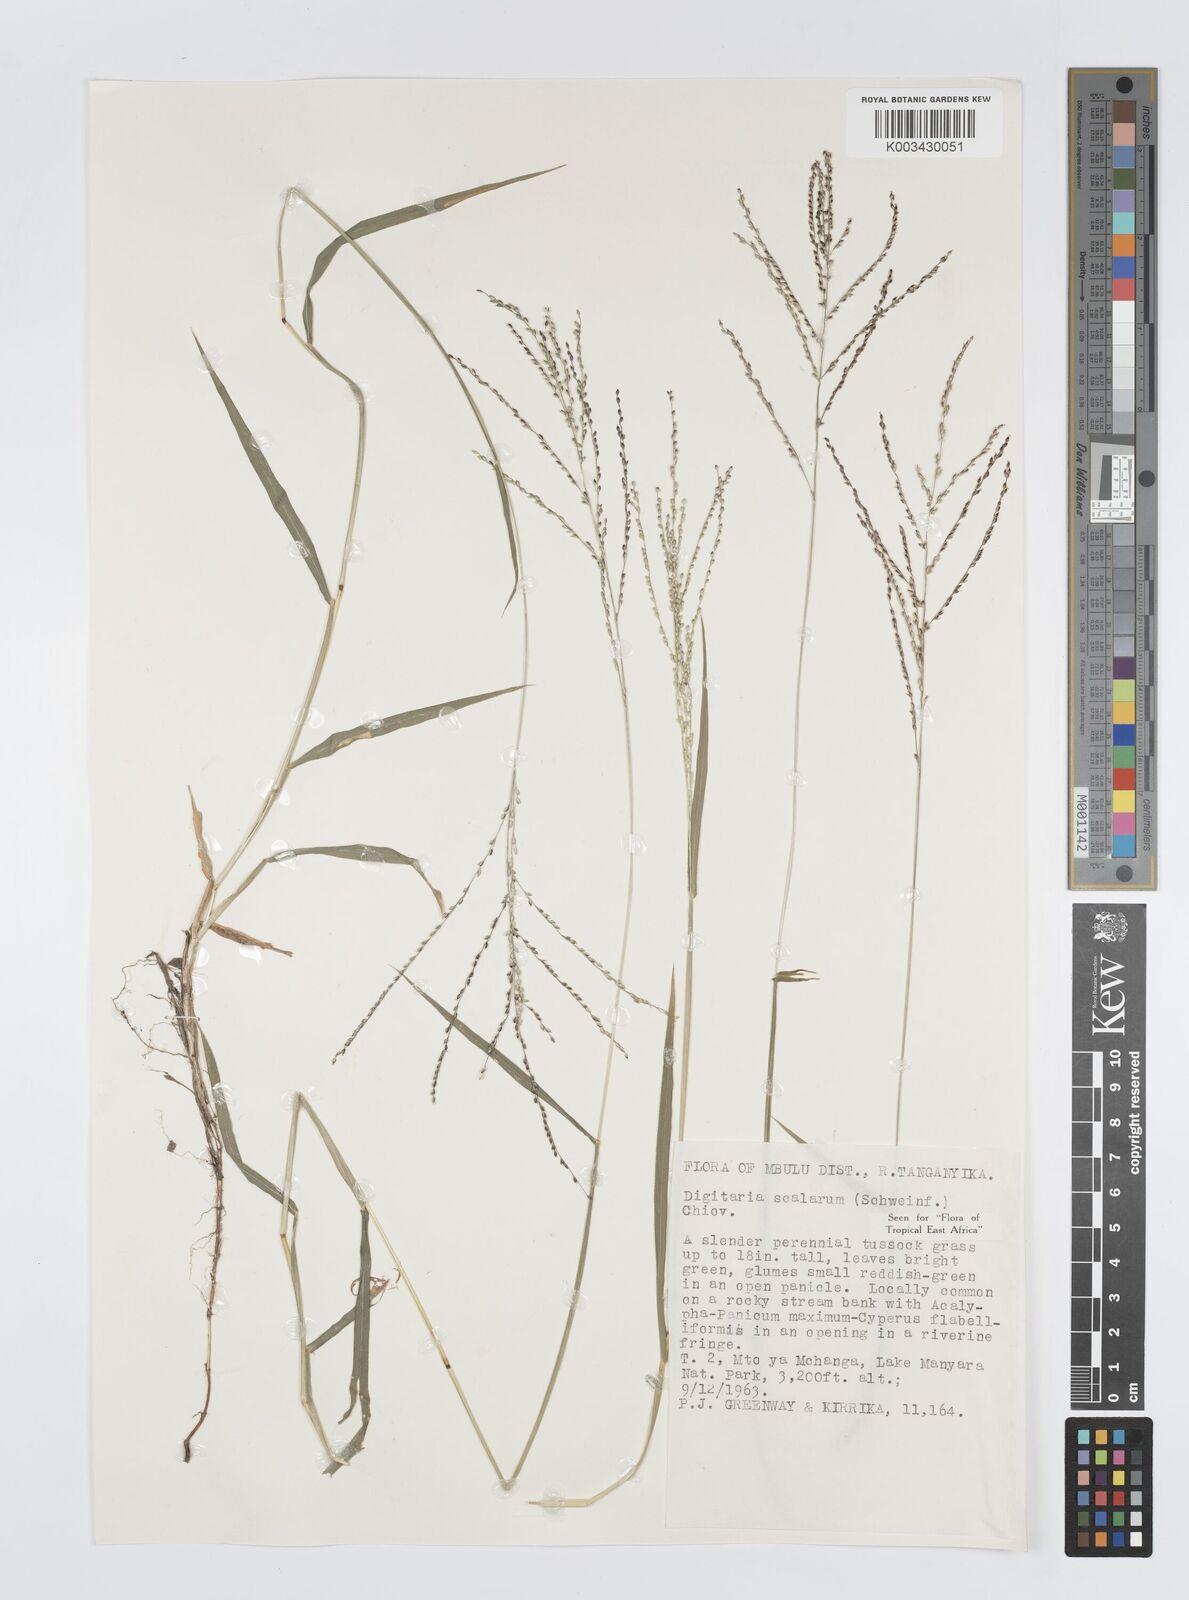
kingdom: Plantae
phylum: Tracheophyta
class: Liliopsida
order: Poales
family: Poaceae
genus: Digitaria
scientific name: Digitaria abyssinica
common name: African couchgrass
